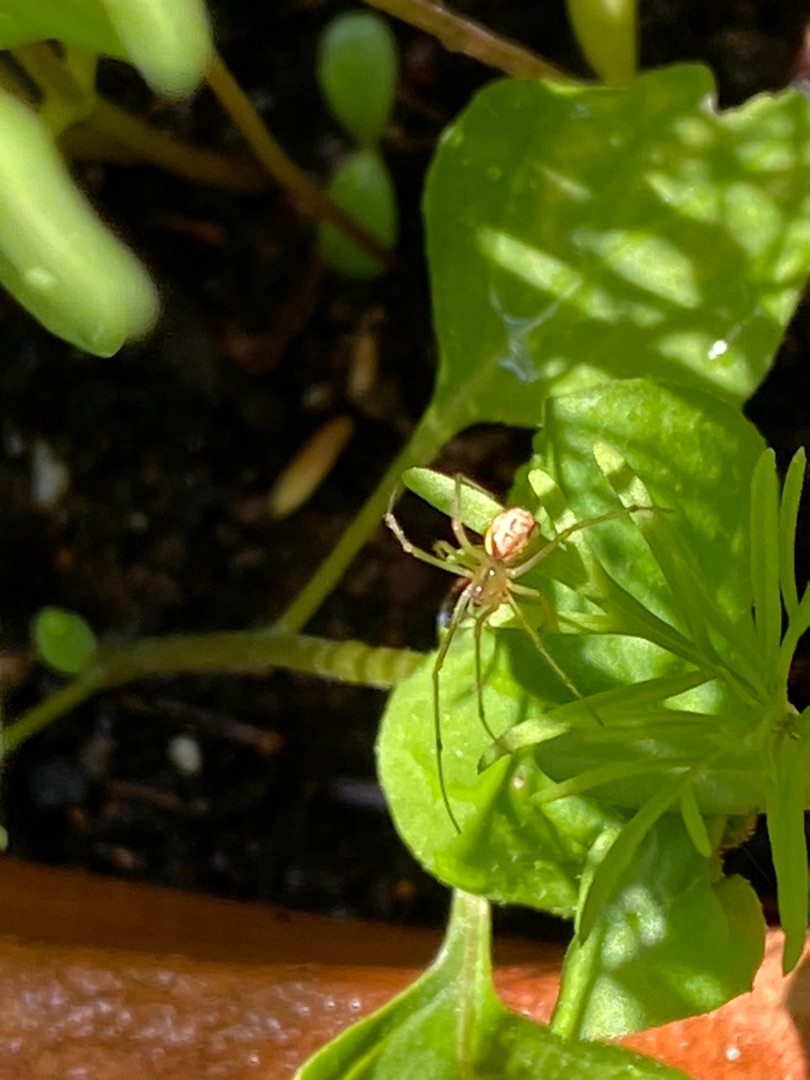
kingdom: Animalia
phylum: Arthropoda
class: Arachnida
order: Araneae
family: Theridiidae
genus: Enoplognatha
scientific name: Enoplognatha
